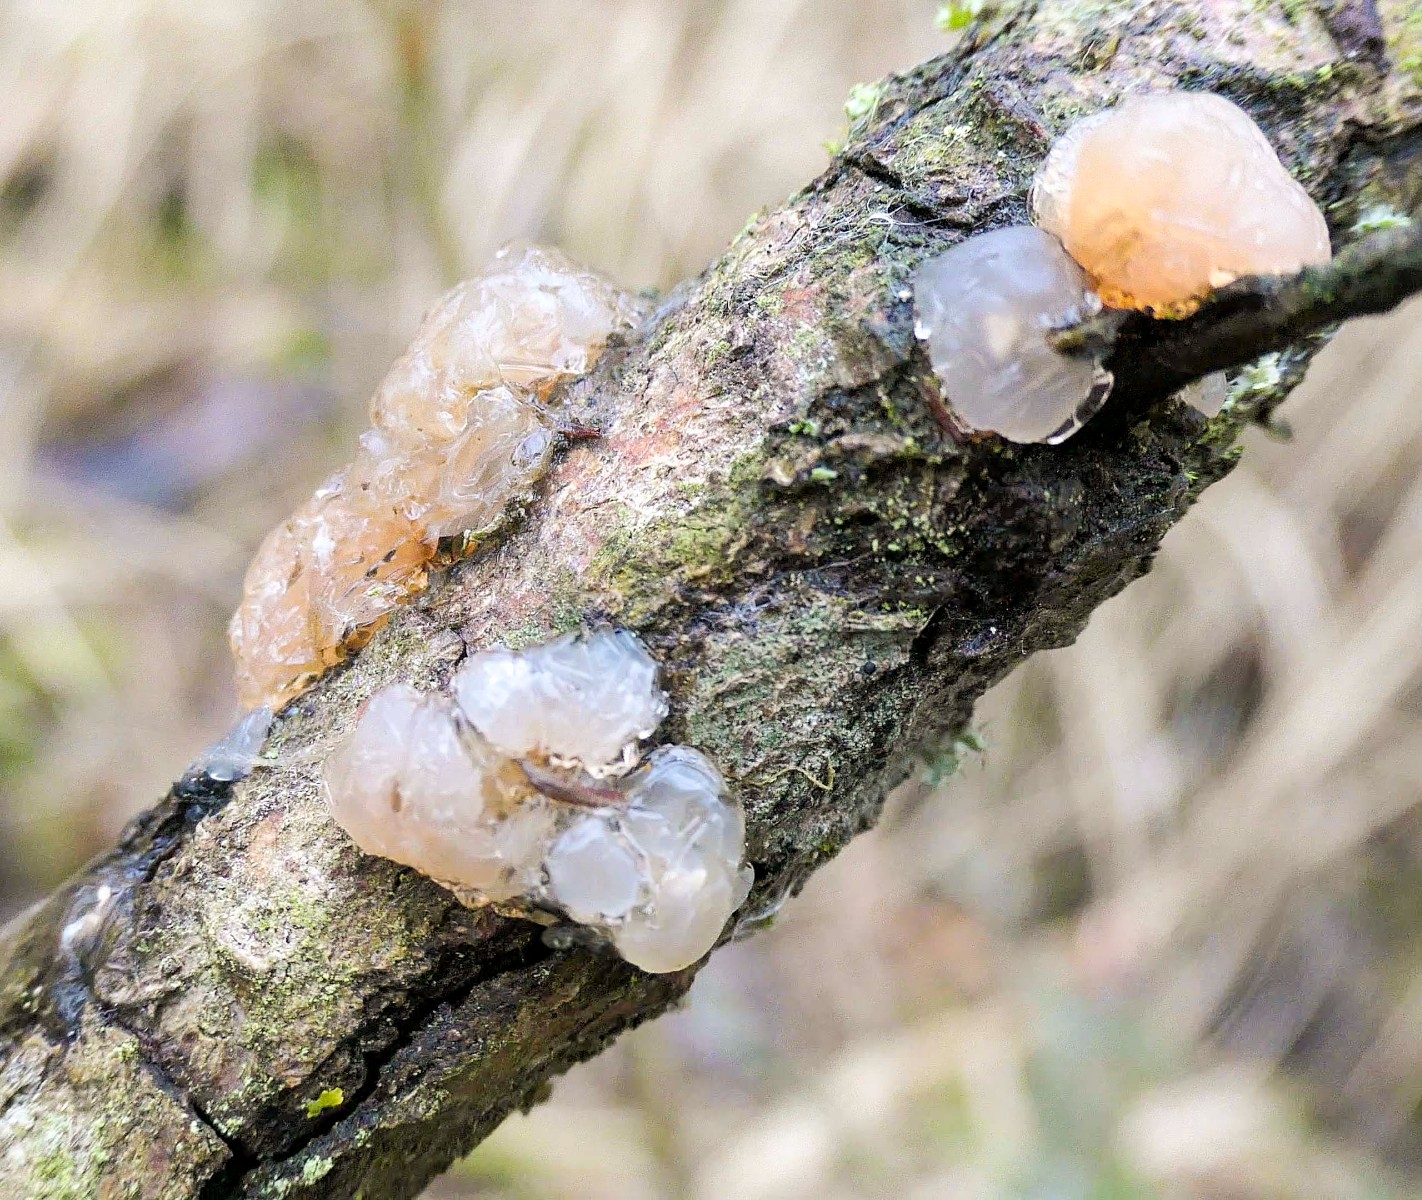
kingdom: Fungi
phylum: Basidiomycota
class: Agaricomycetes
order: Auriculariales
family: Hyaloriaceae
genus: Myxarium
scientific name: Myxarium hyalinum
